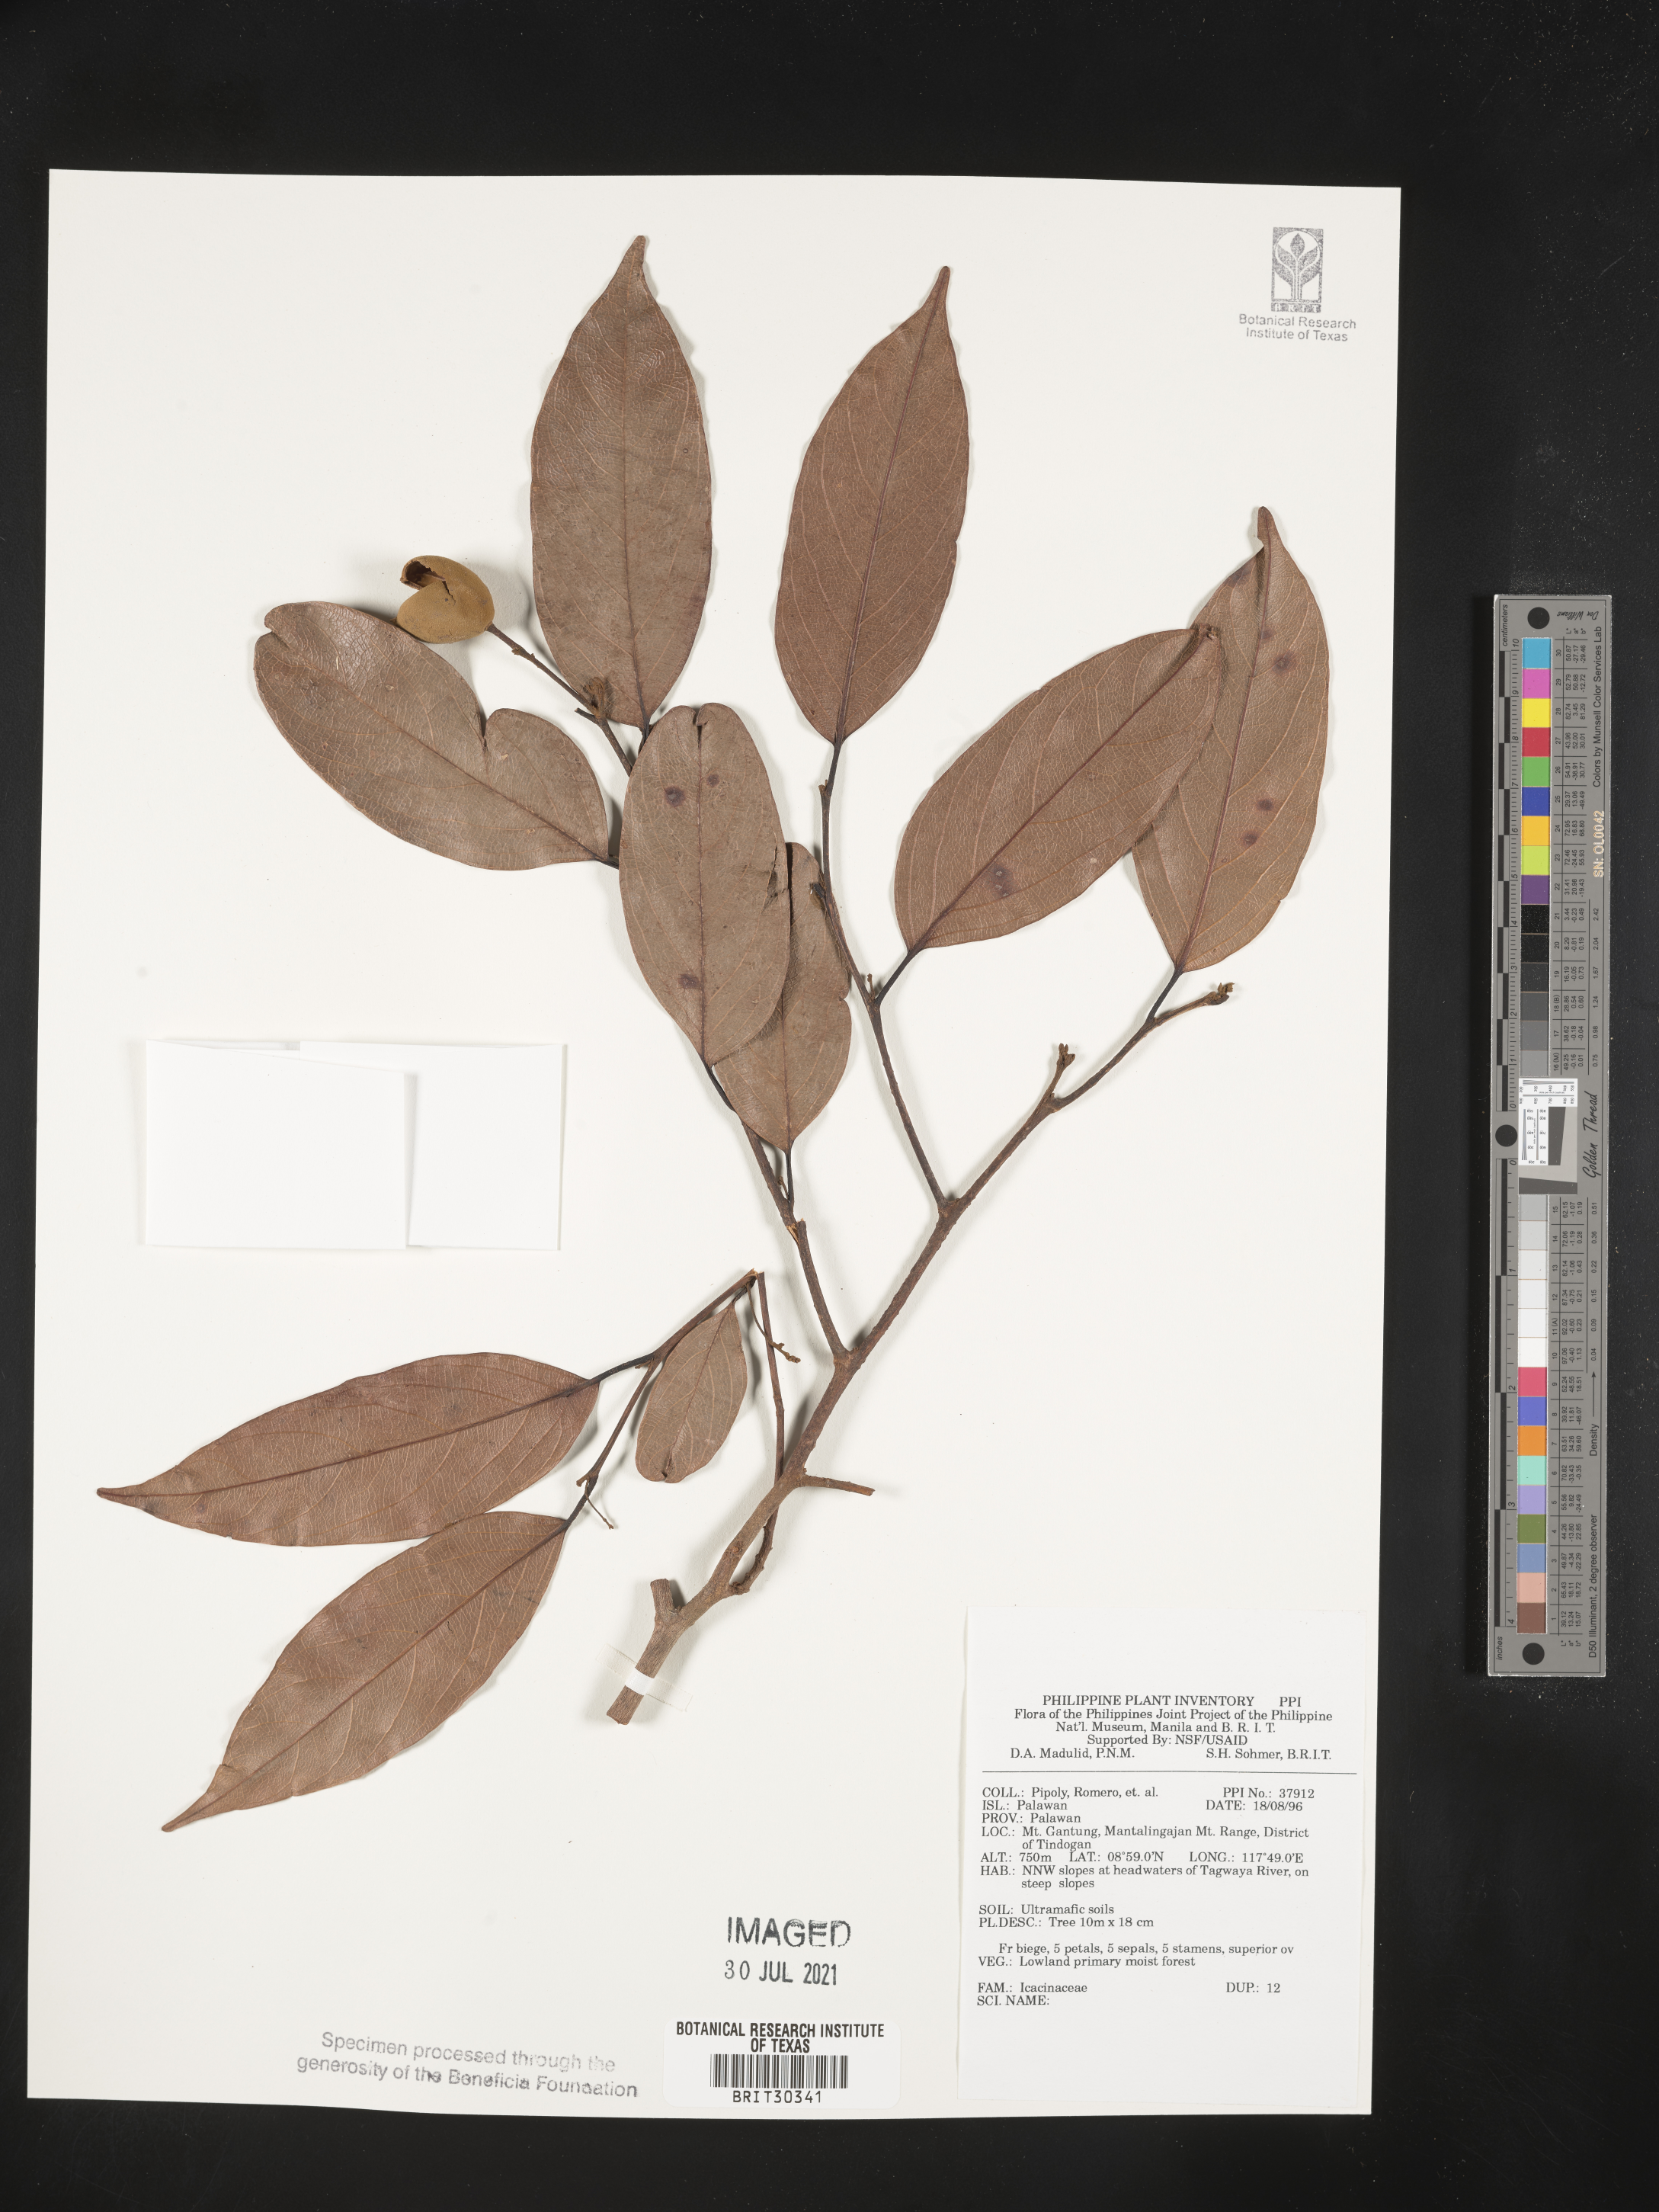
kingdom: Plantae
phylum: Tracheophyta
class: Magnoliopsida
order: Icacinales
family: Icacinaceae
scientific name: Icacinaceae
